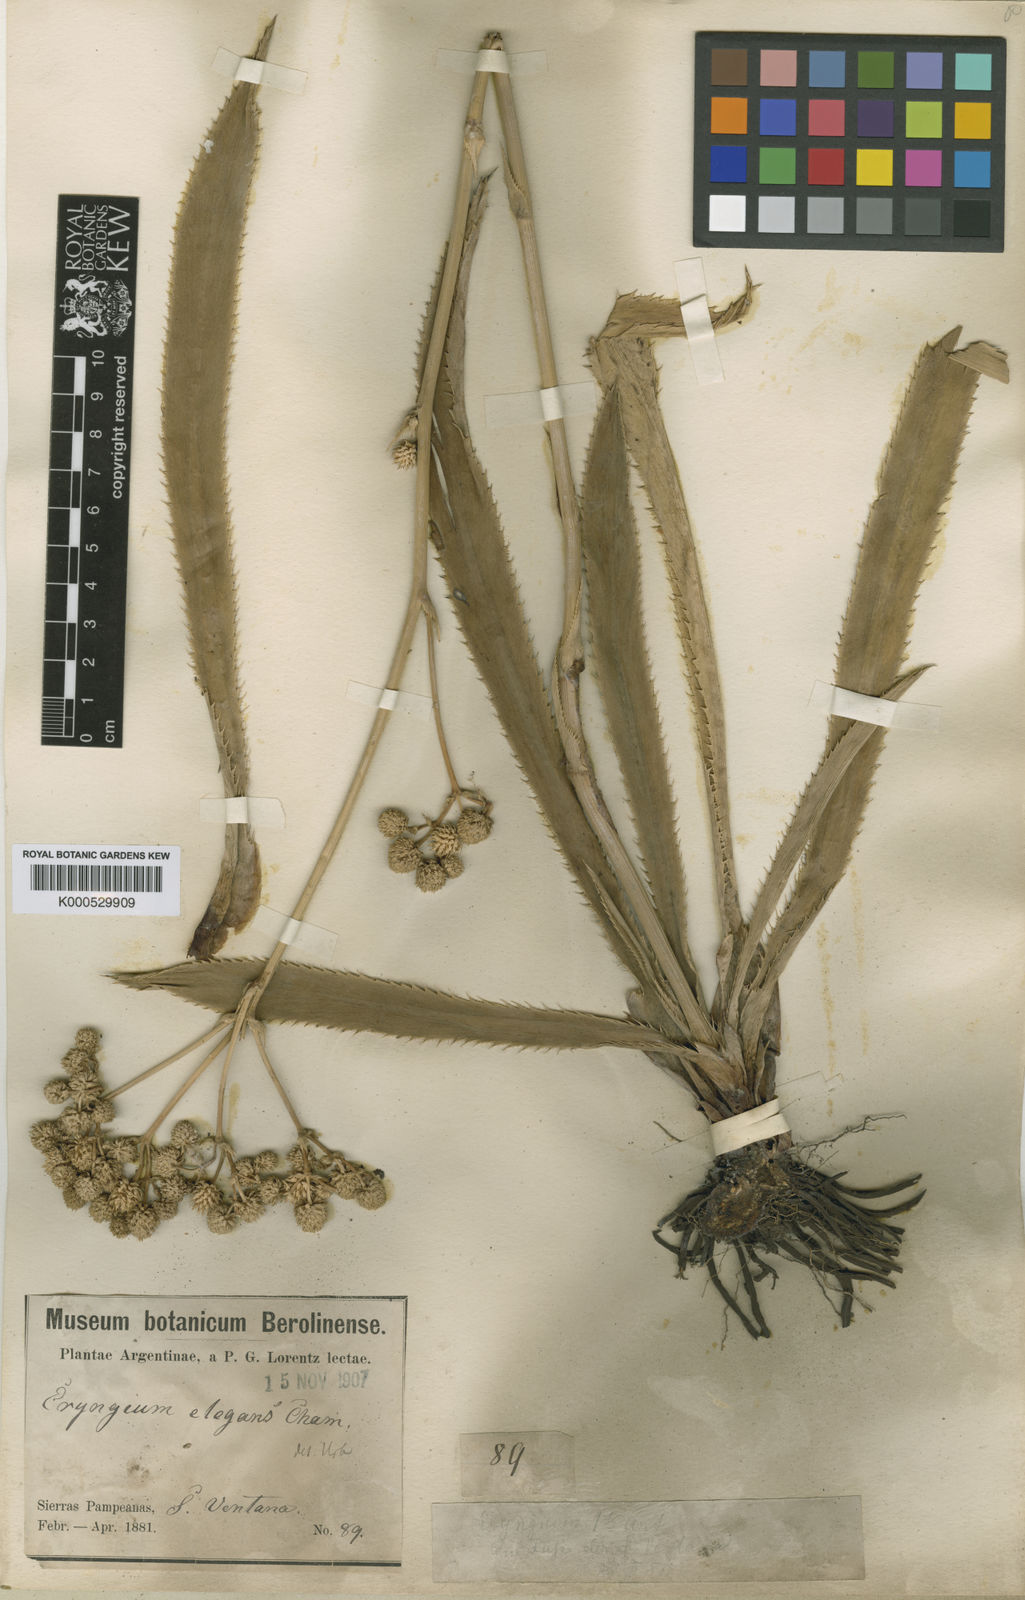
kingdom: Plantae
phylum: Tracheophyta
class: Magnoliopsida
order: Apiales
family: Apiaceae
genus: Eryngium
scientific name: Eryngium elegans
